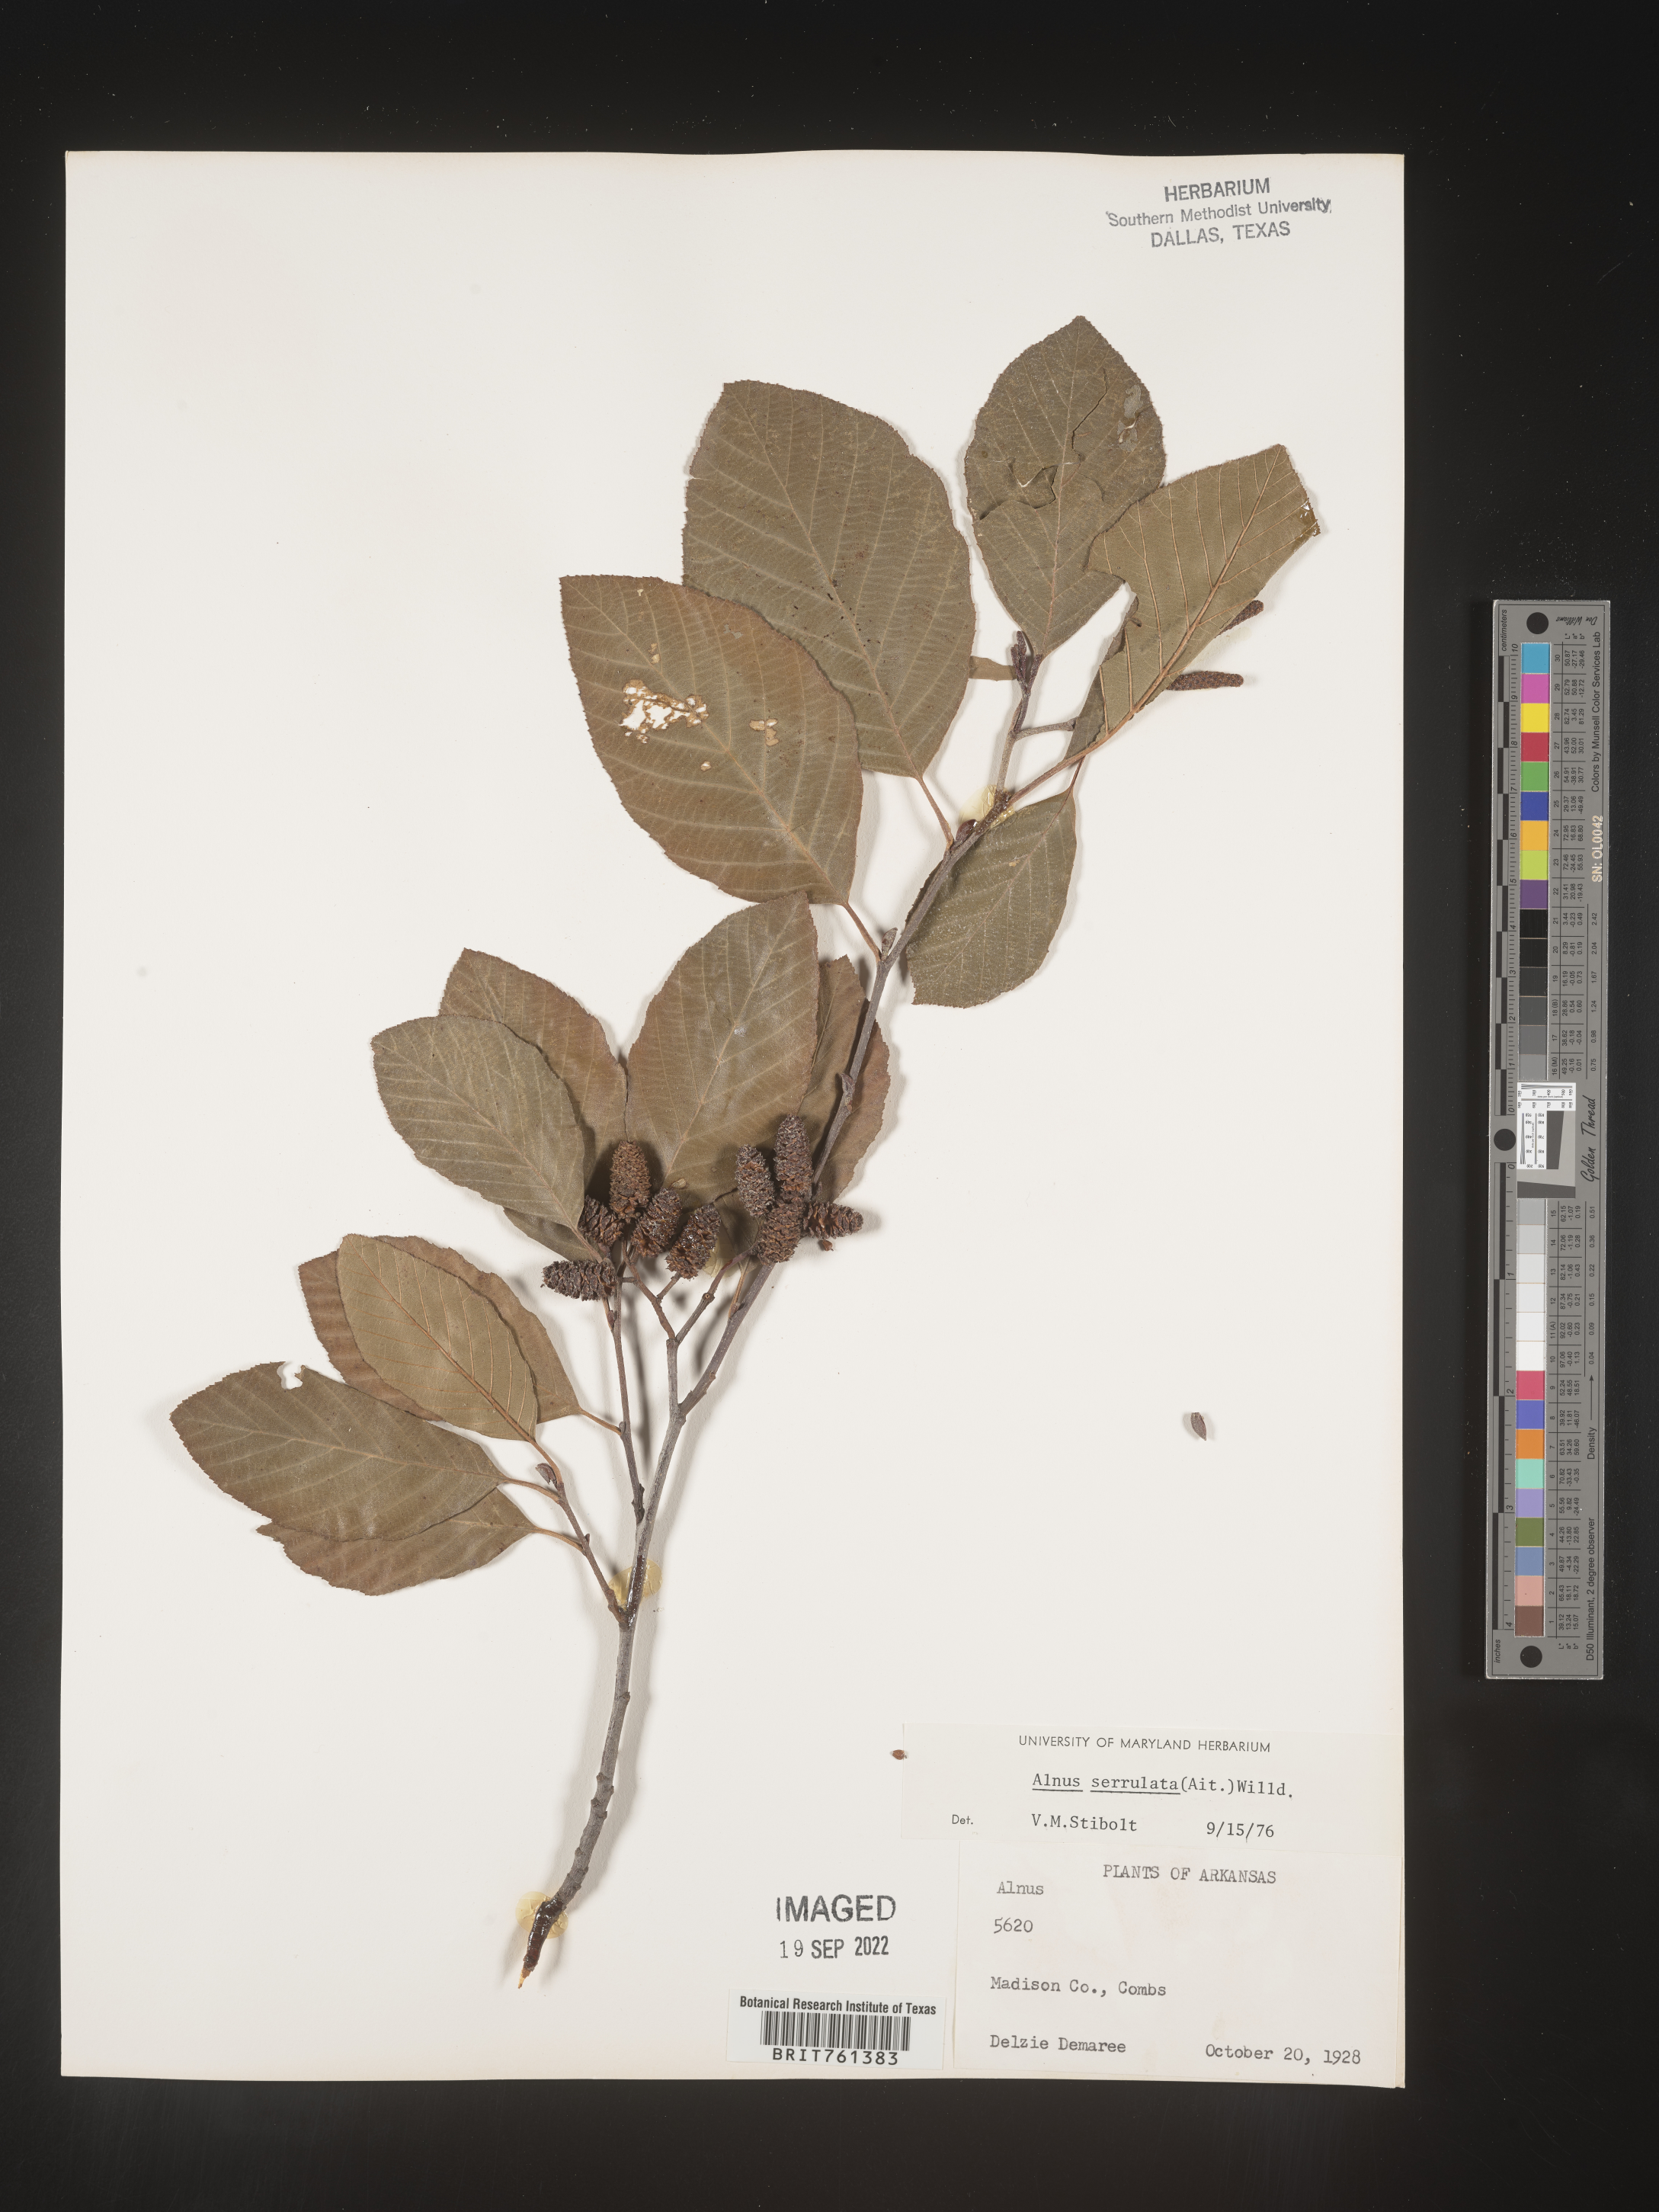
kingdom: Plantae
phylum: Tracheophyta
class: Magnoliopsida
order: Fagales
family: Betulaceae
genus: Alnus
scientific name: Alnus serrulata
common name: Hazel alder
